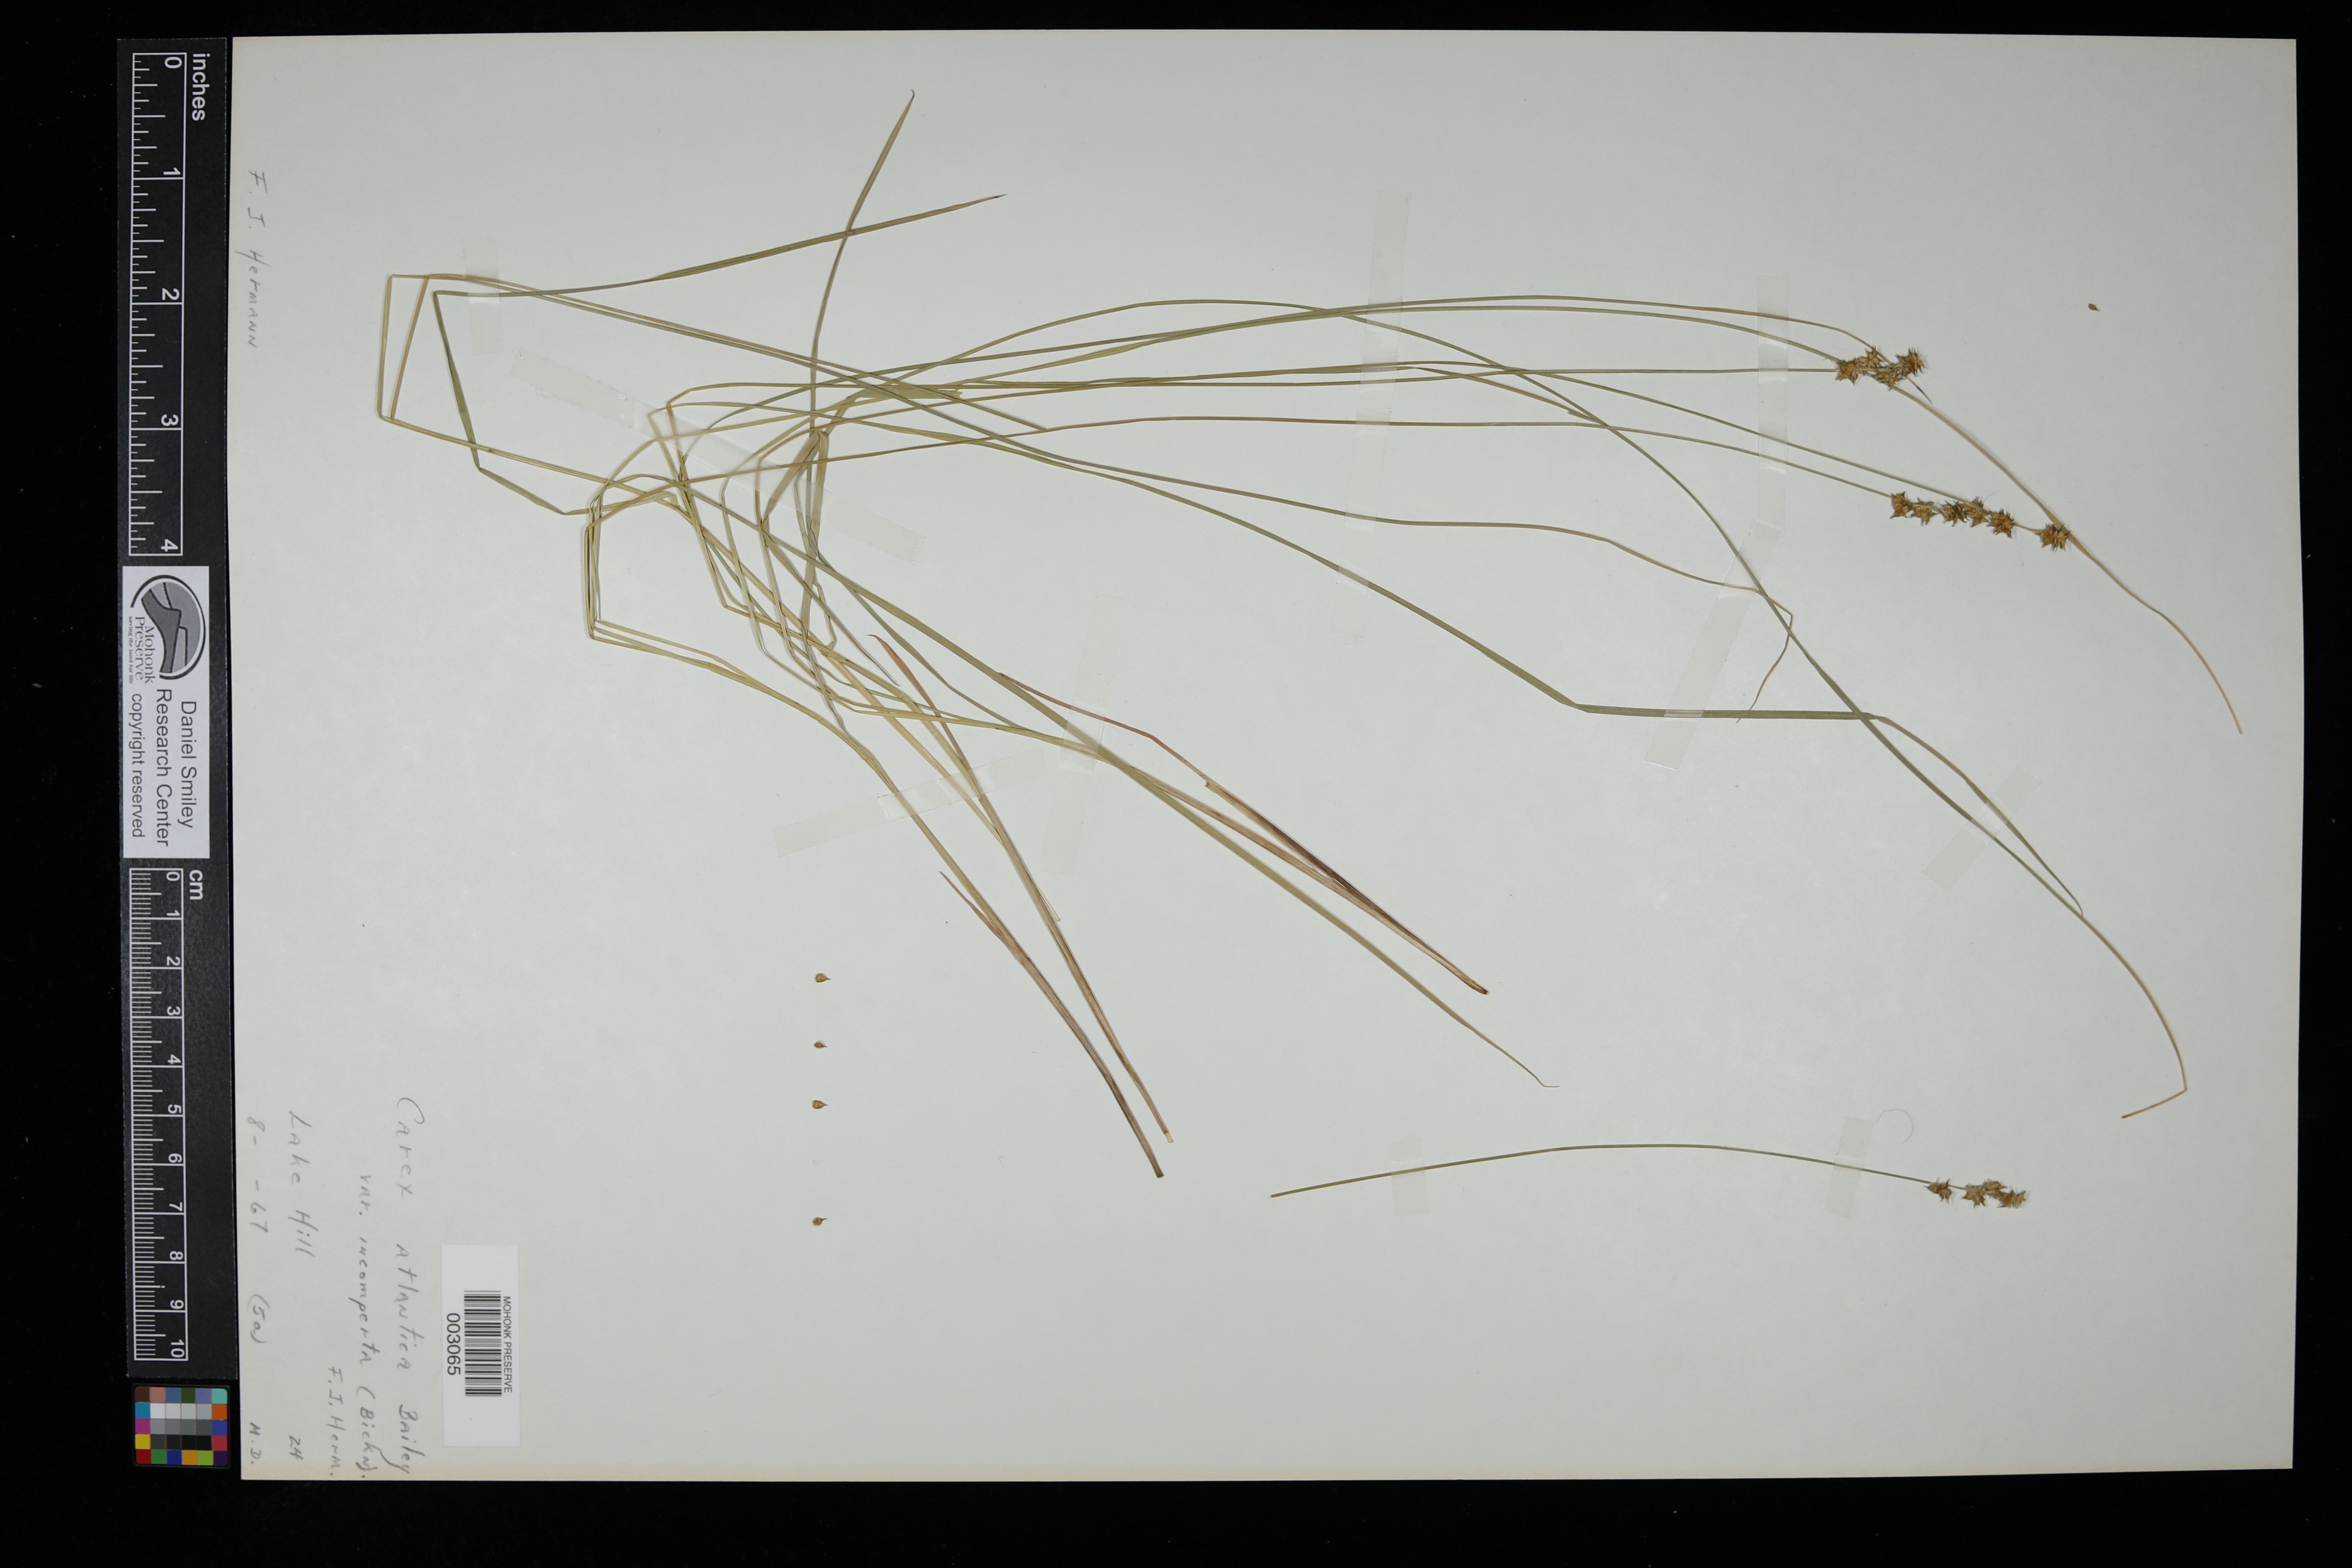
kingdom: Plantae
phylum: Tracheophyta
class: Liliopsida
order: Poales
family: Cyperaceae
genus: Carex
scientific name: Carex atlantica
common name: Atlantic sedge
